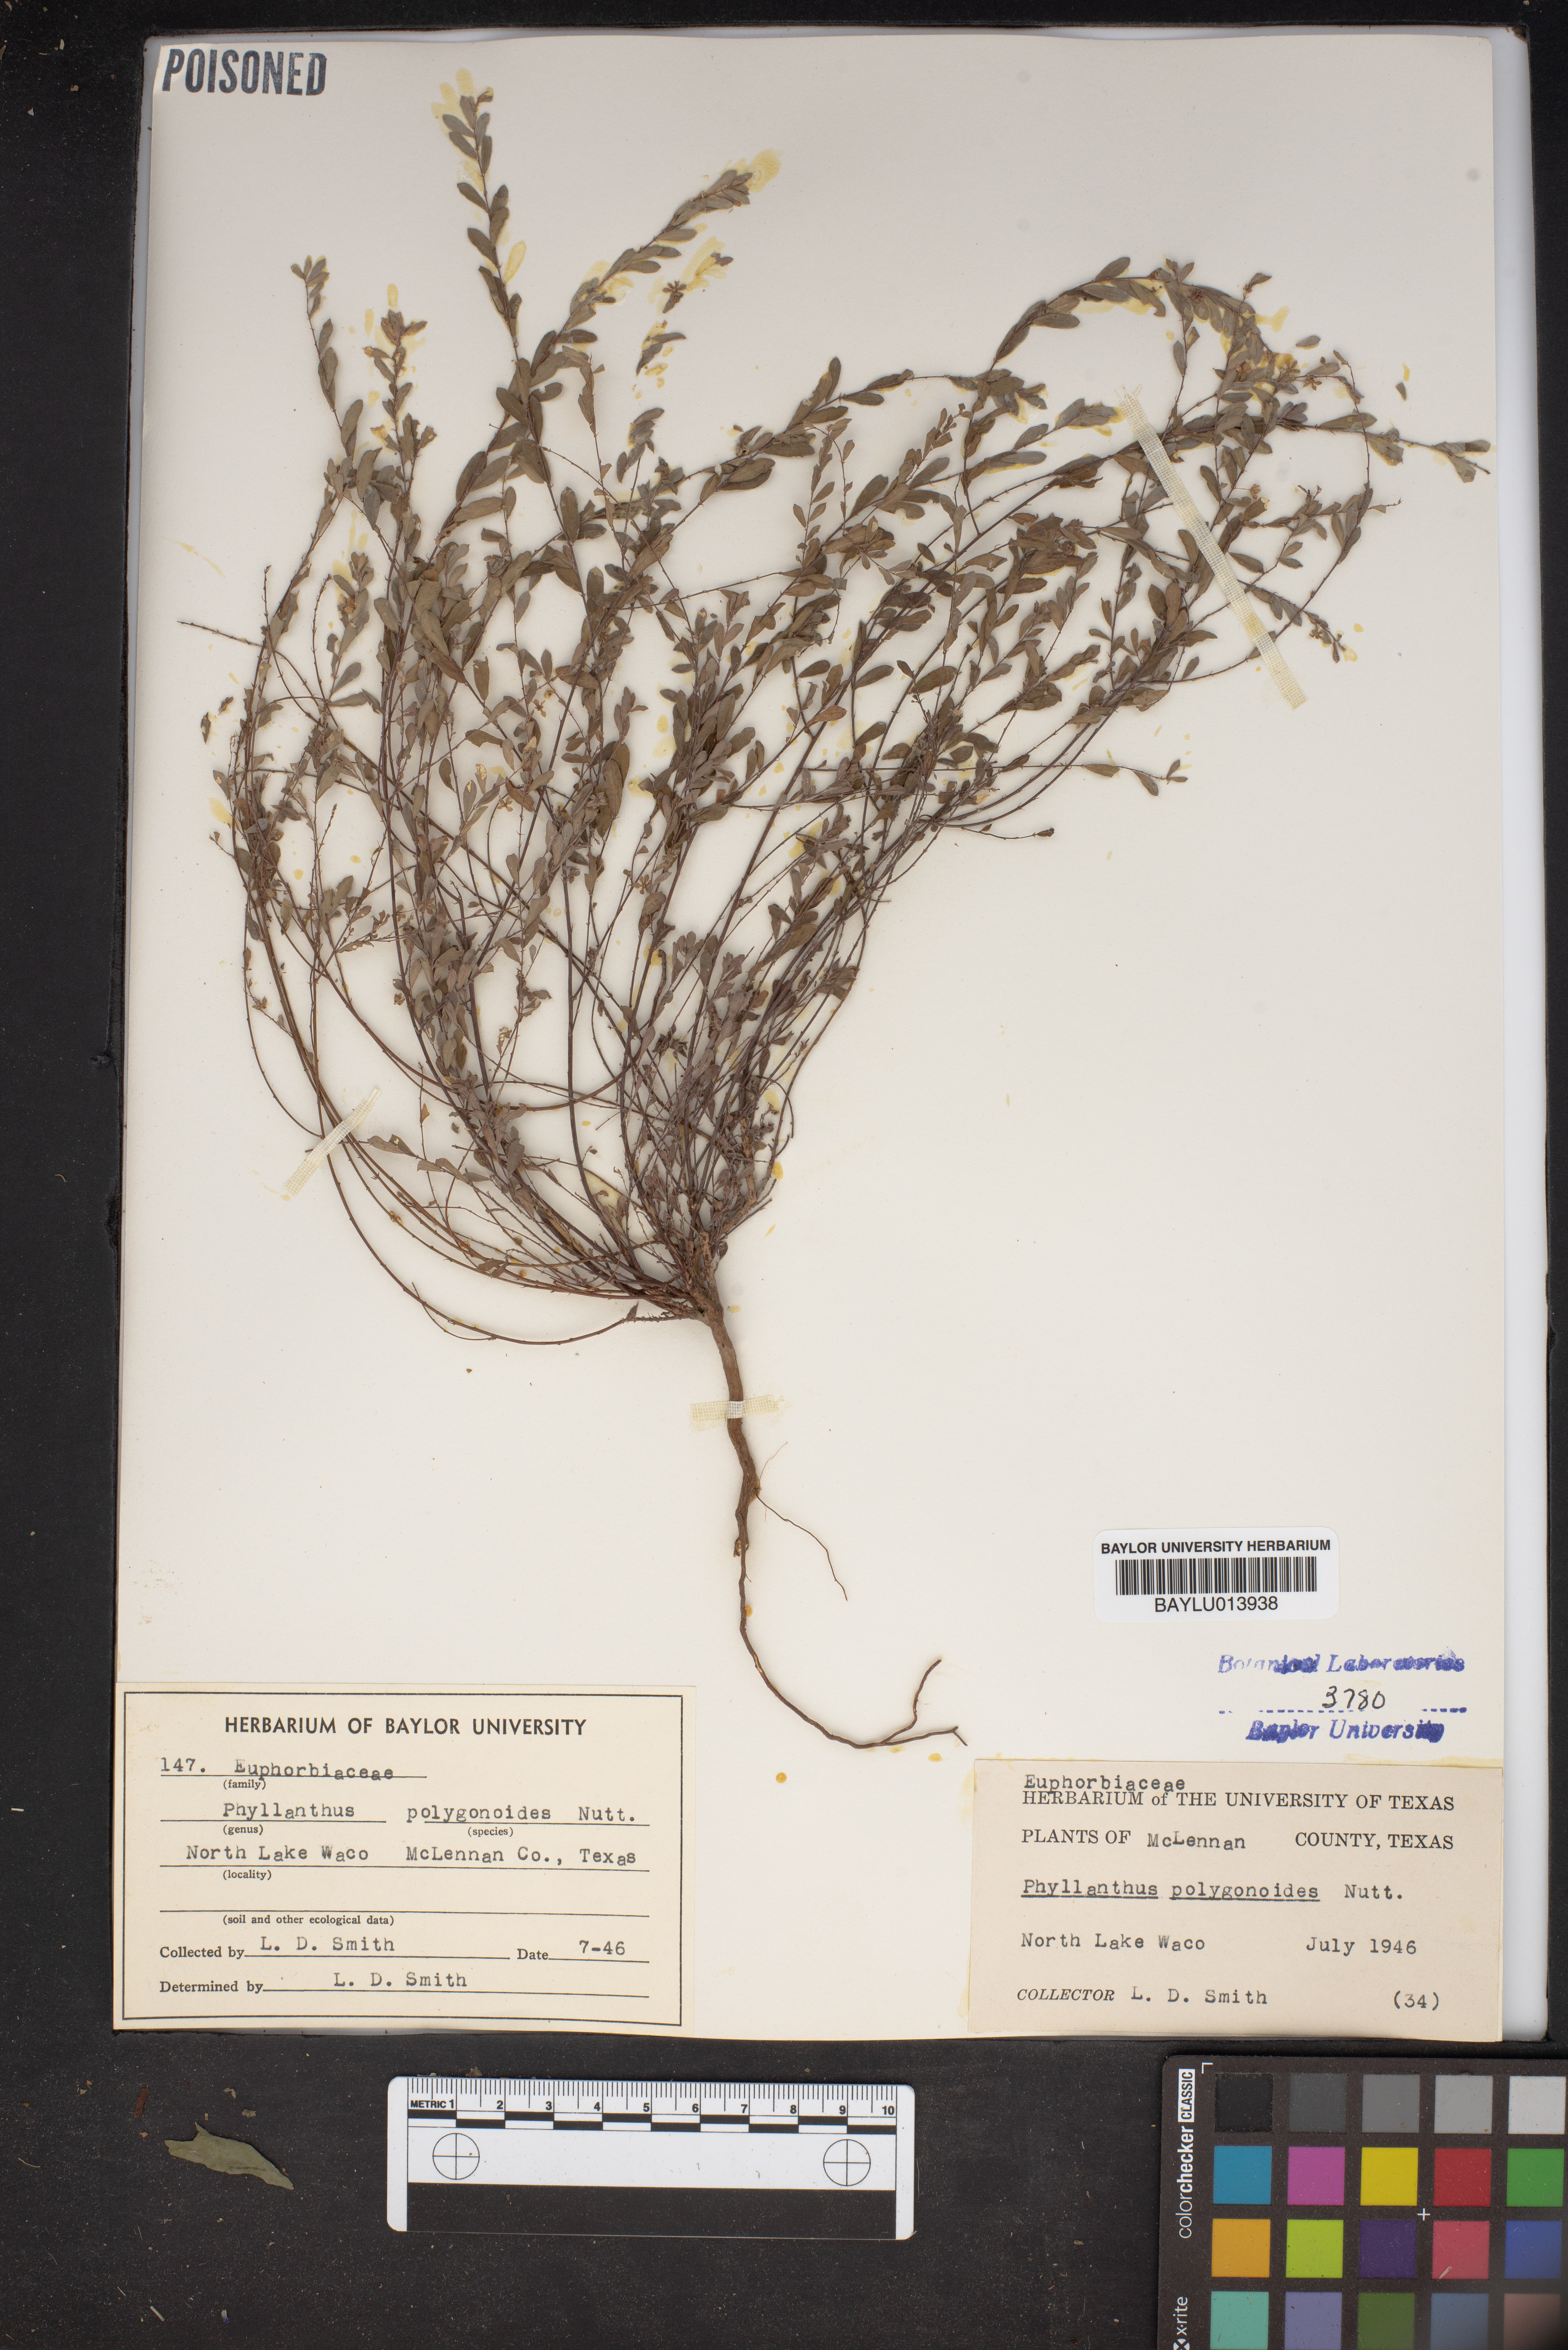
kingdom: Plantae
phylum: Tracheophyta
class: Magnoliopsida
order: Malpighiales
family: Phyllanthaceae
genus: Phyllanthus
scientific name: Phyllanthus polygonoides
